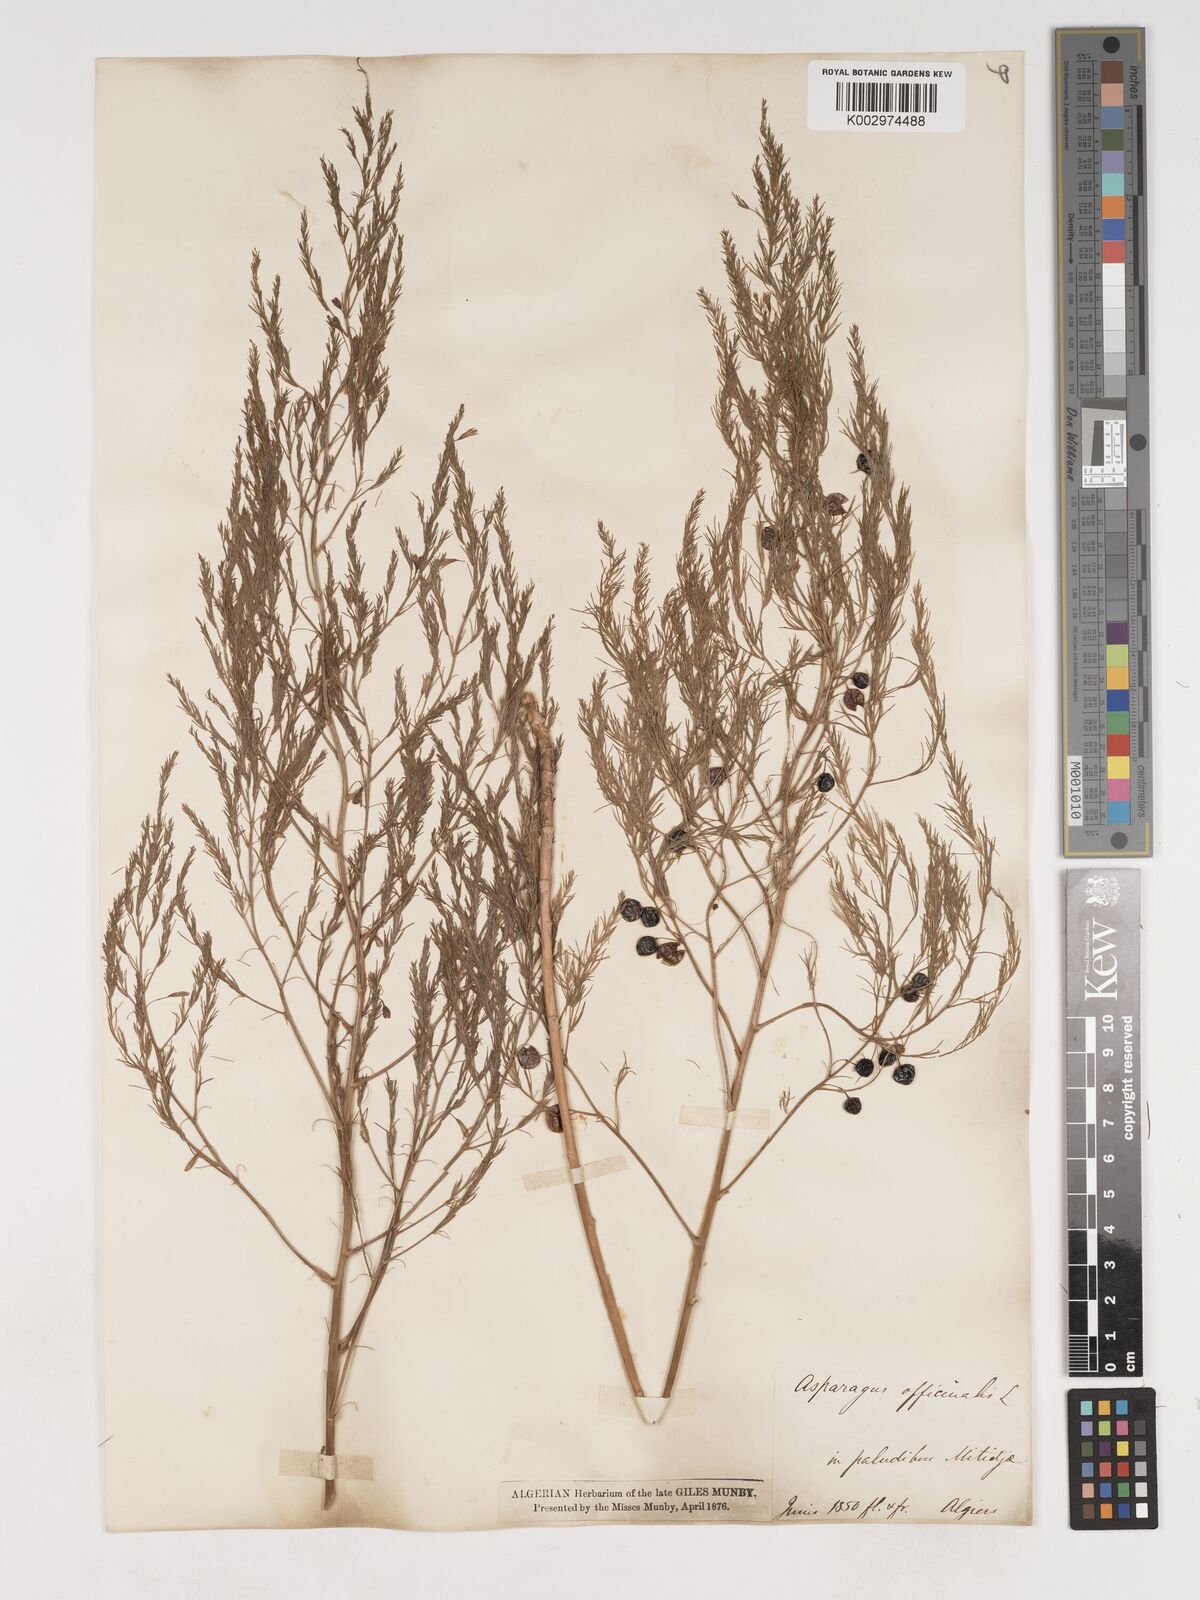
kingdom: Plantae
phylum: Tracheophyta
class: Liliopsida
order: Asparagales
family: Asparagaceae
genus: Asparagus
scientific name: Asparagus officinalis
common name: Garden asparagus
